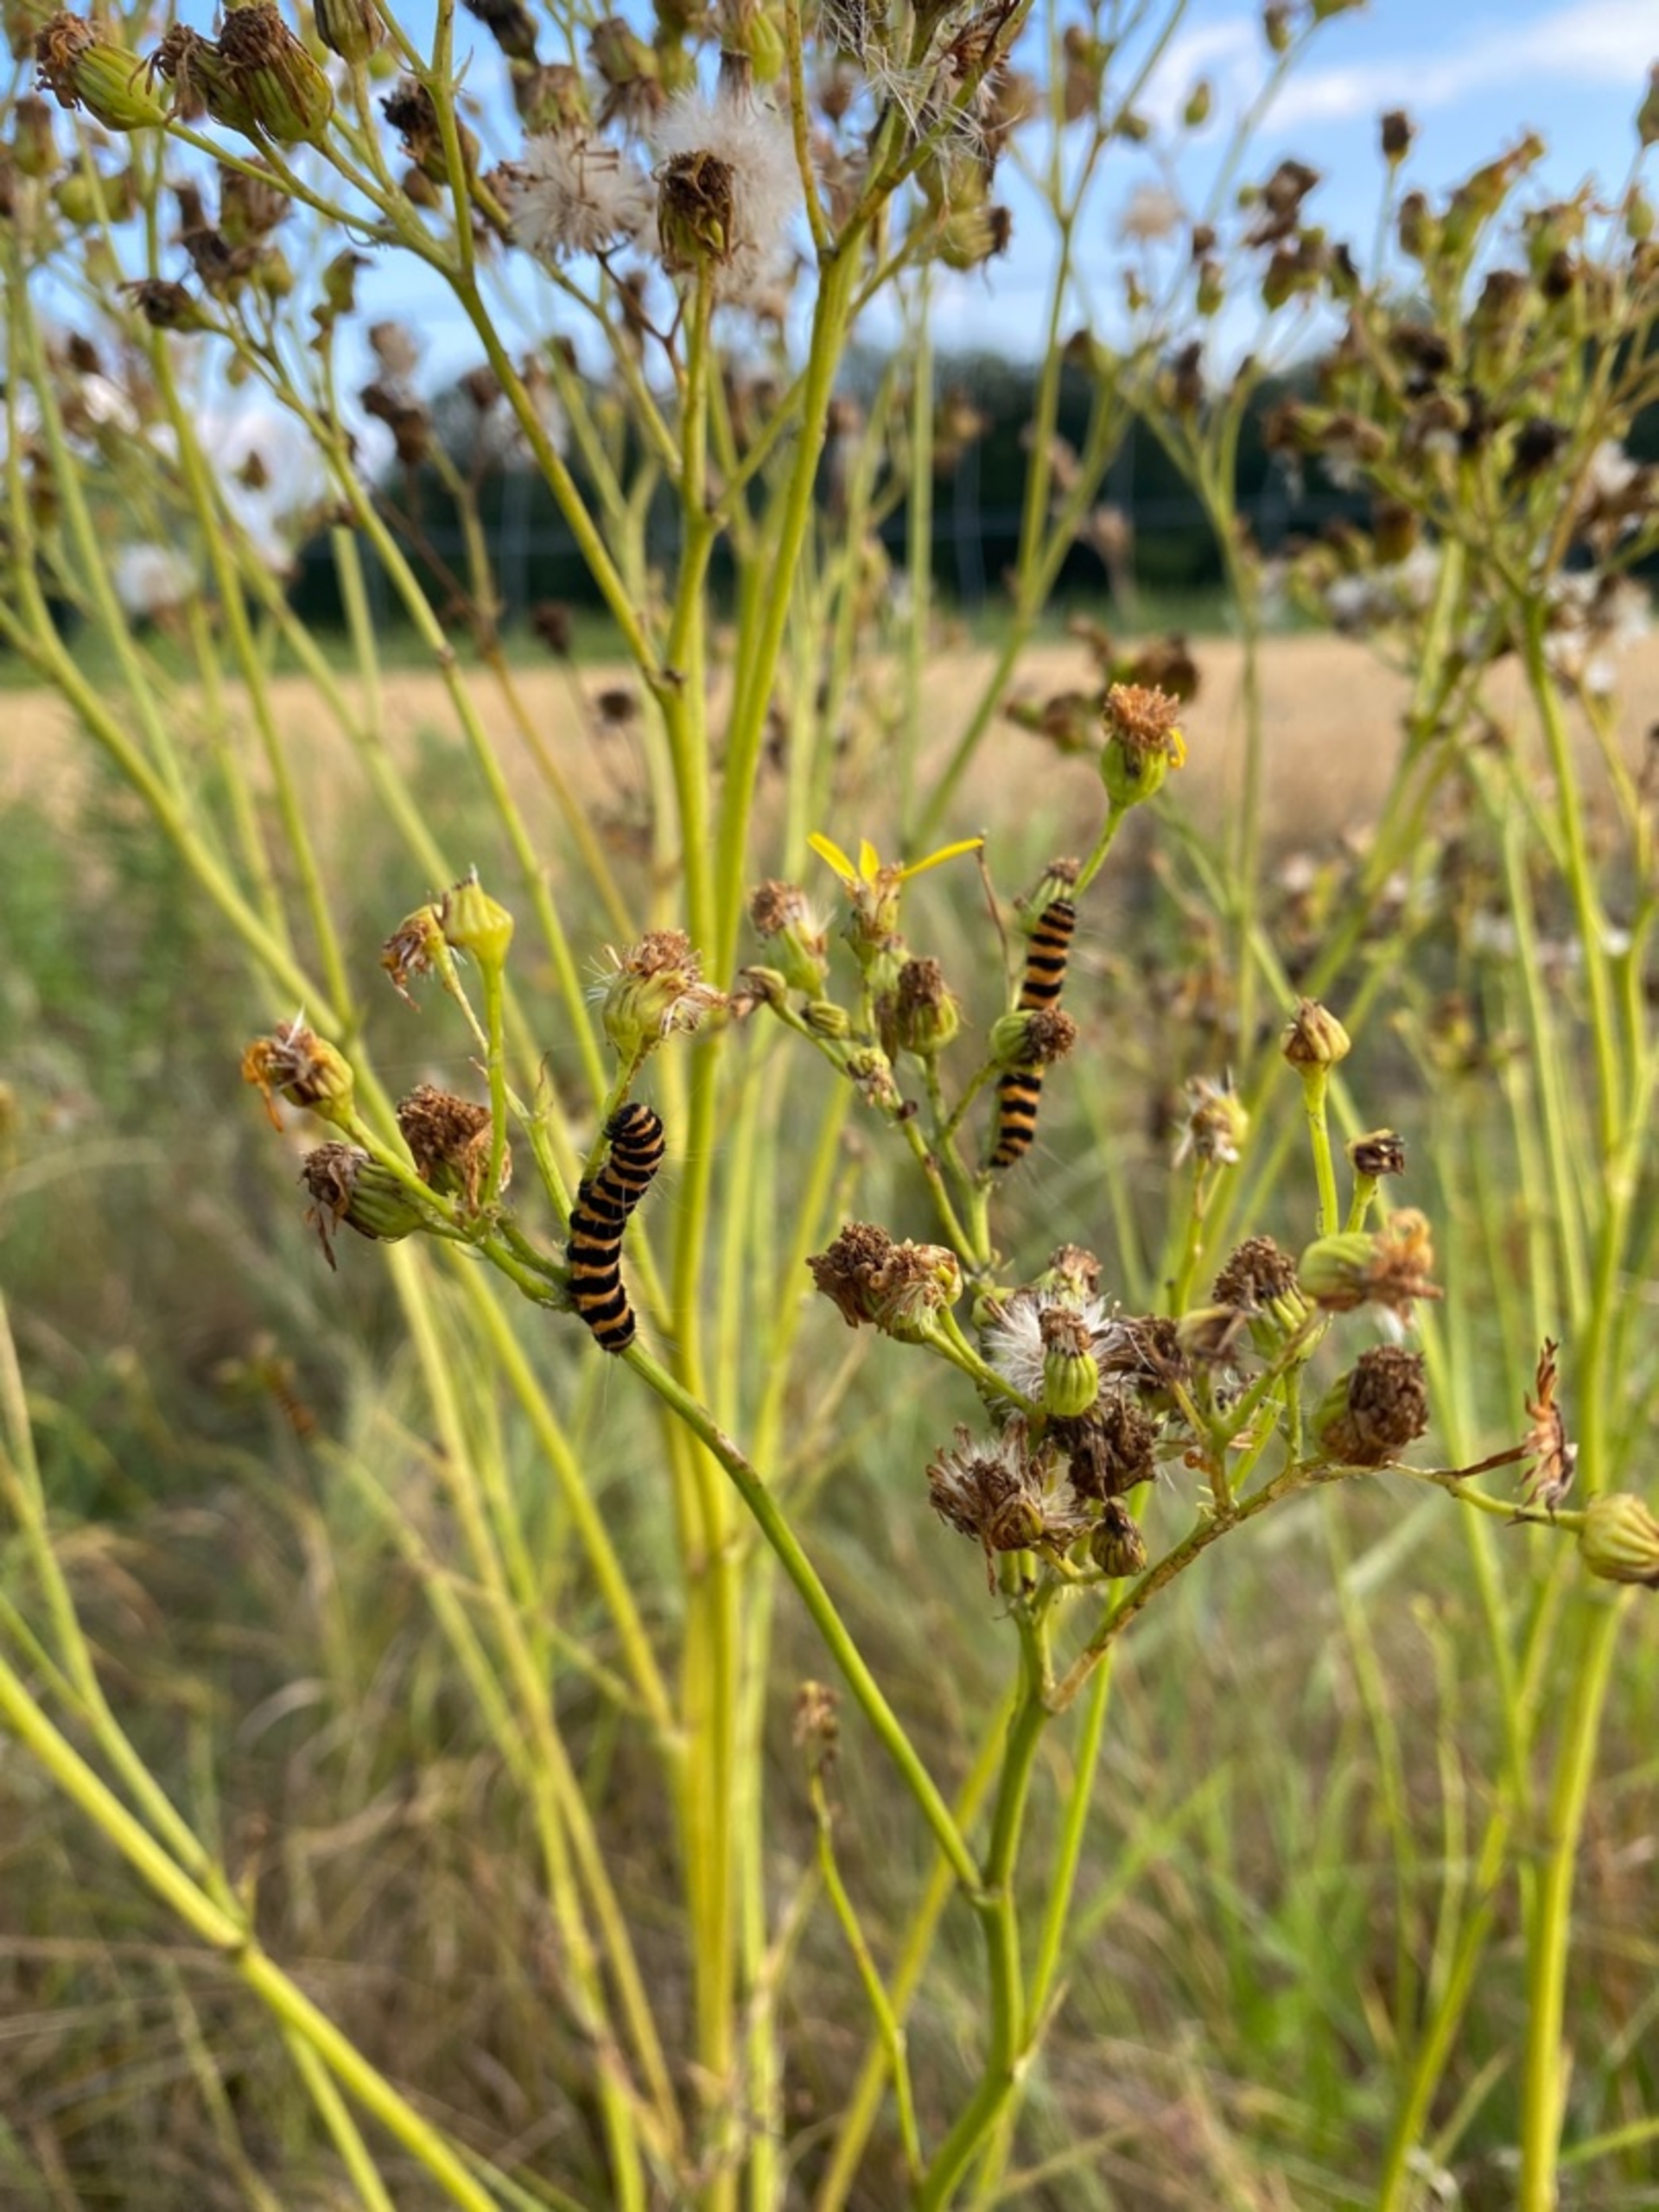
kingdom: Animalia
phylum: Arthropoda
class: Insecta
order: Lepidoptera
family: Erebidae
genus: Tyria
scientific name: Tyria jacobaeae
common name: Blodplet
